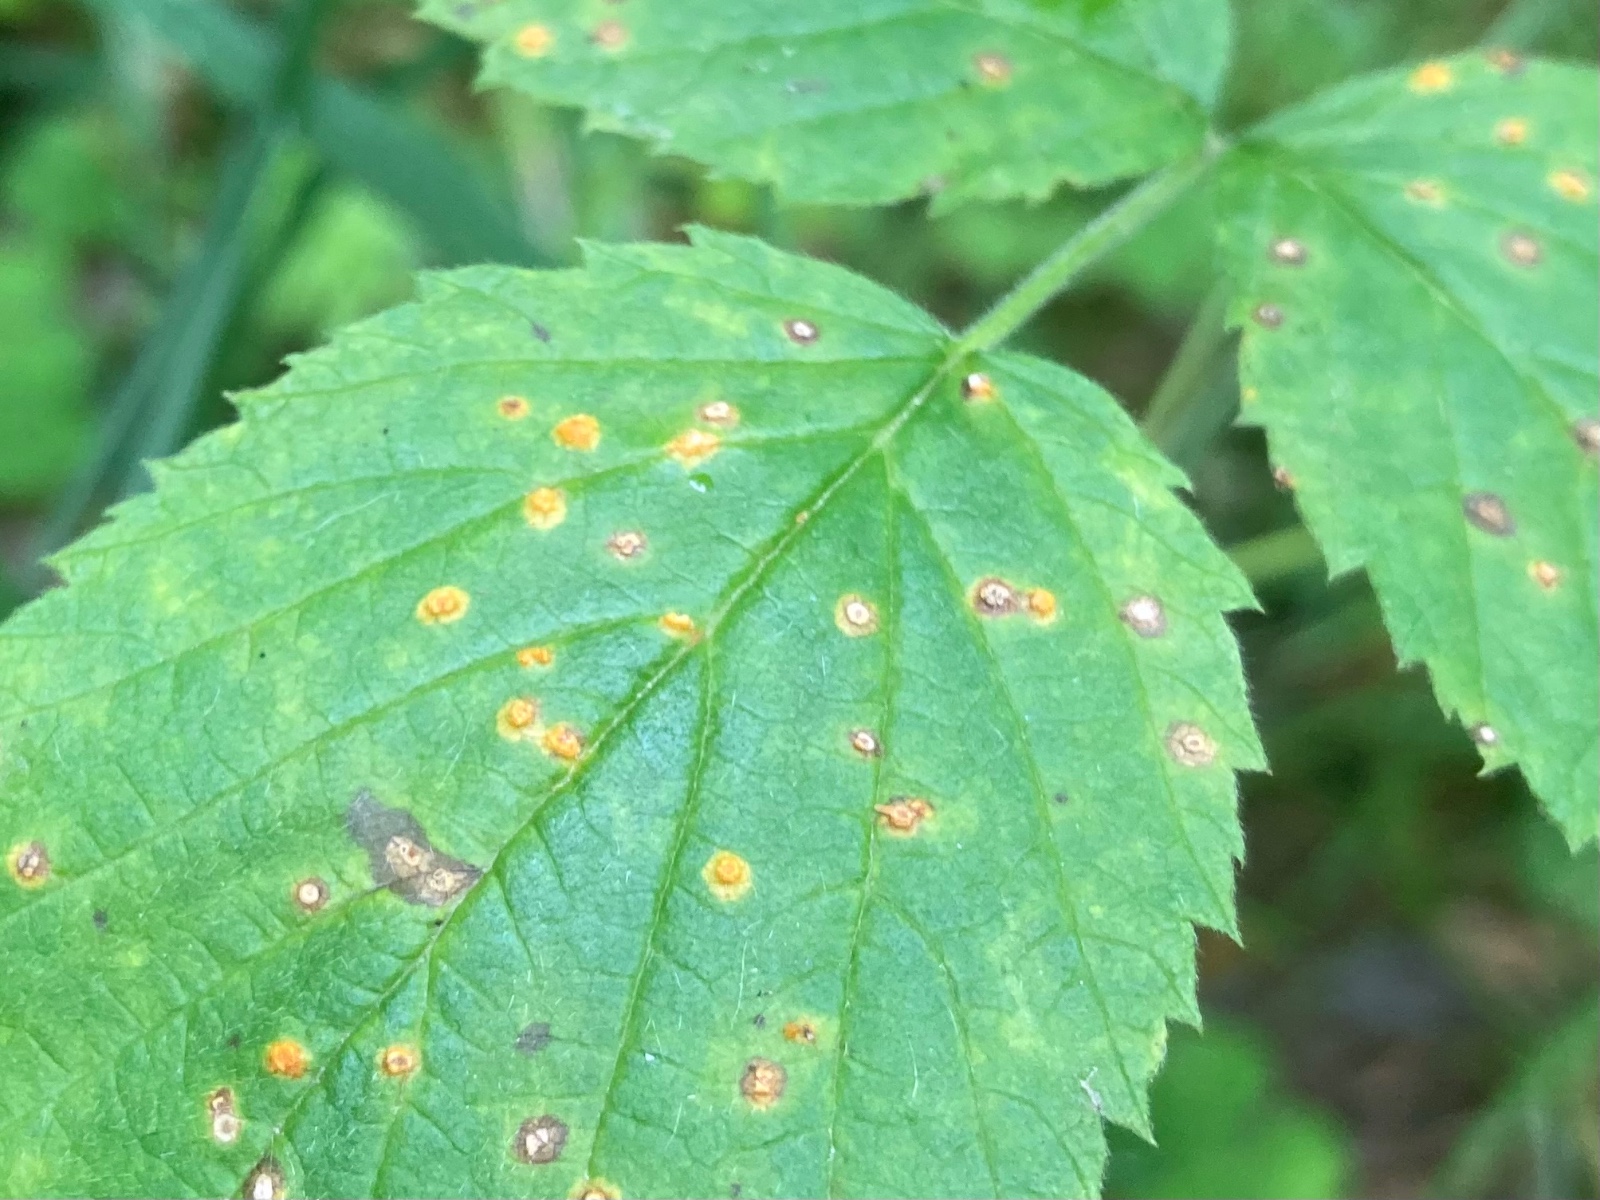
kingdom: Fungi
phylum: Basidiomycota
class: Pucciniomycetes
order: Pucciniales
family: Phragmidiaceae
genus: Phragmidium
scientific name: Phragmidium rubi-idaei
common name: hindbær-flercellerust
